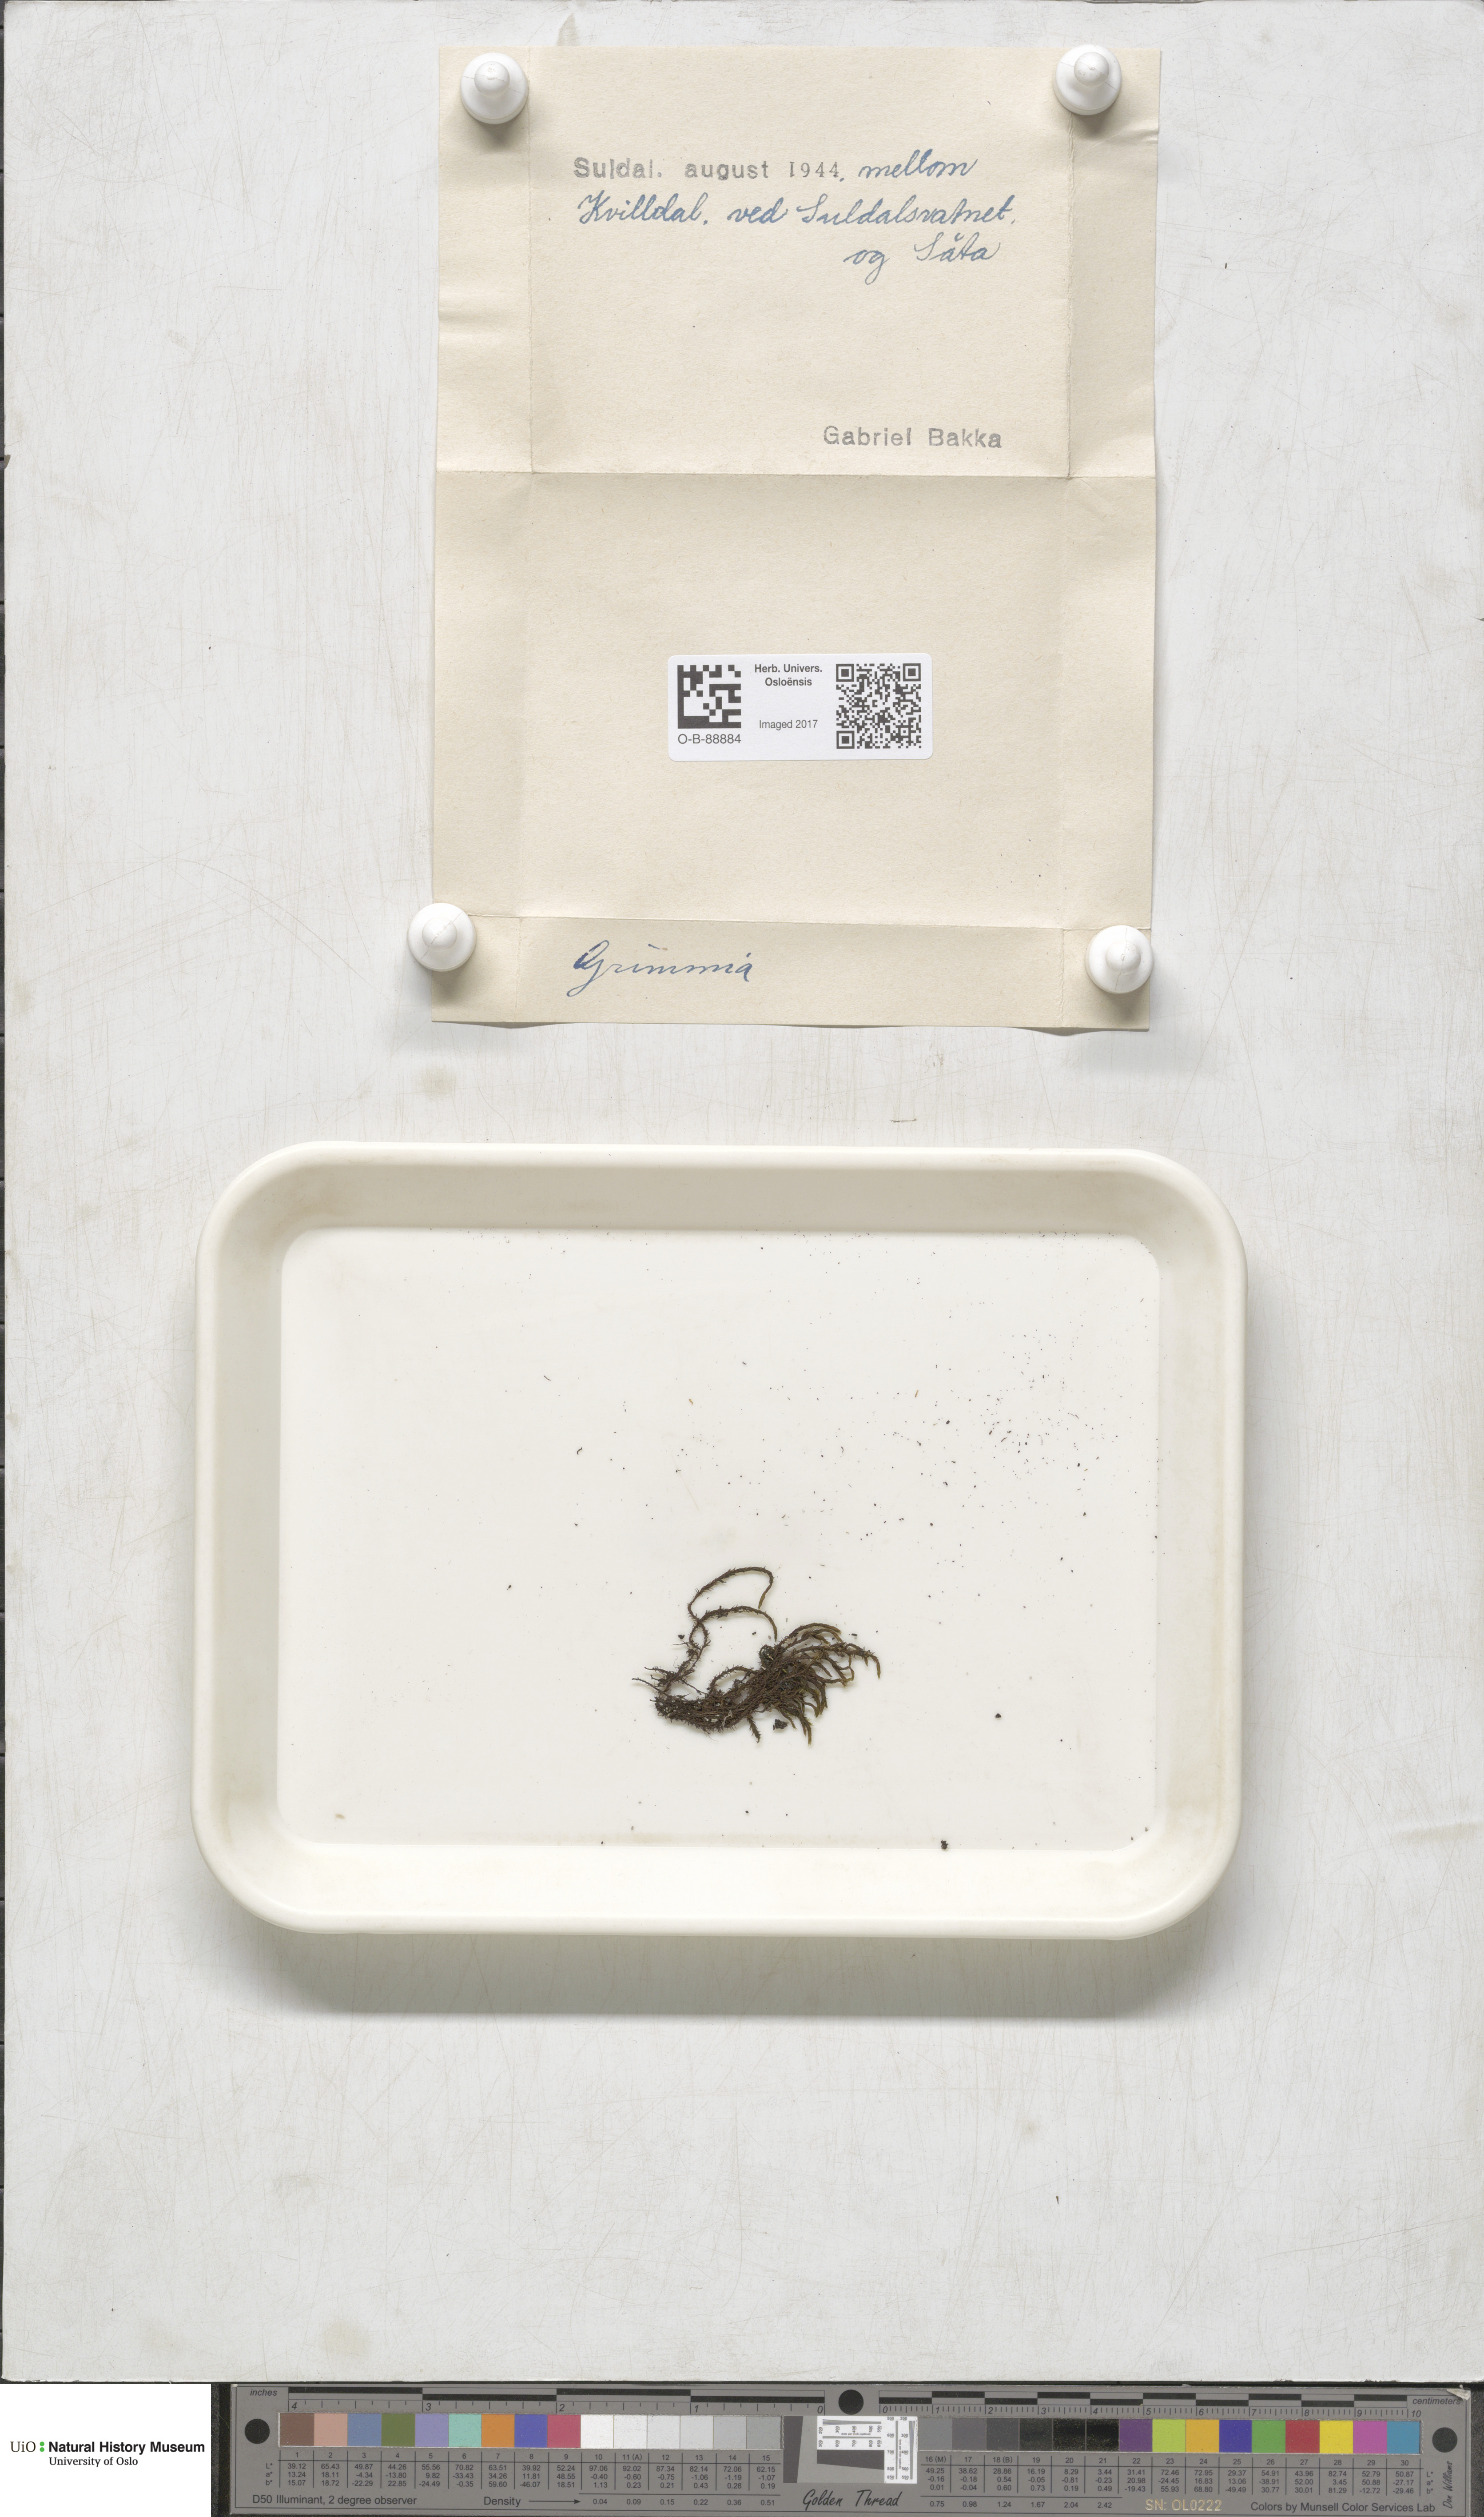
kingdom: Plantae
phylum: Bryophyta
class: Bryopsida
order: Grimmiales
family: Grimmiaceae
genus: Grimmia
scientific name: Grimmia
